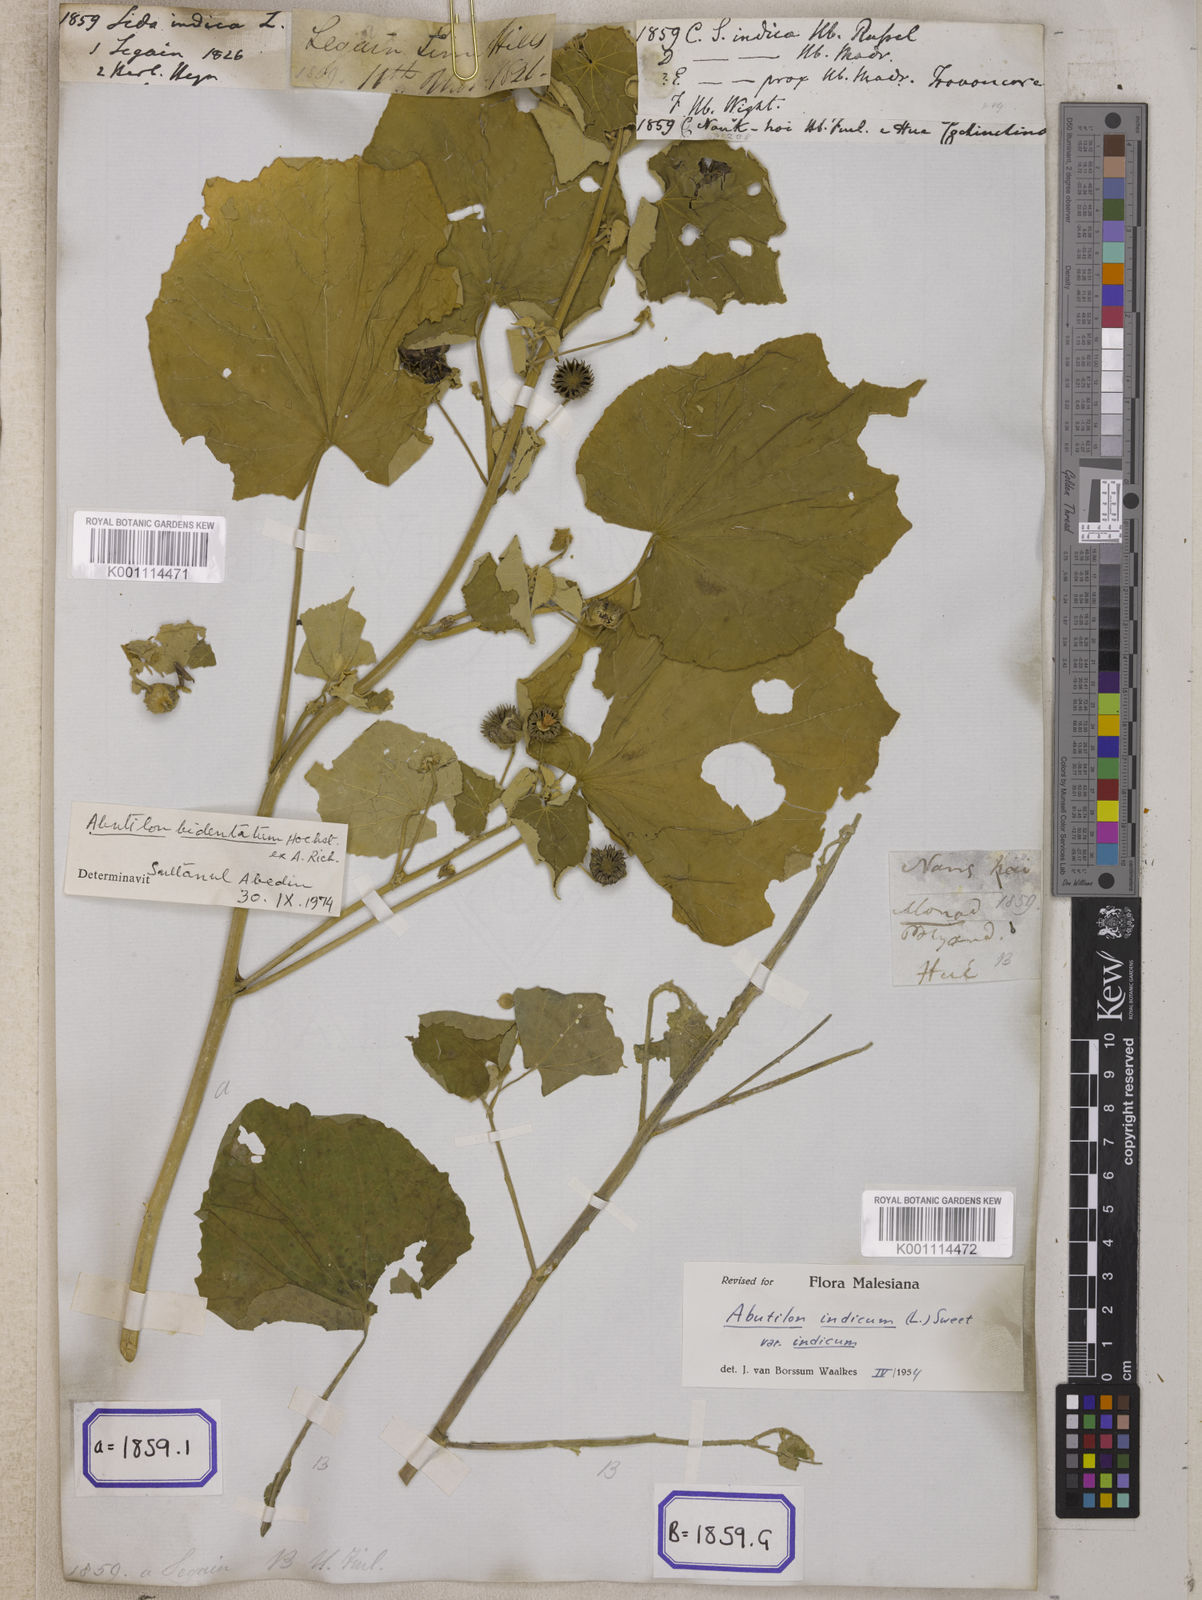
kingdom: Plantae
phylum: Tracheophyta
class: Magnoliopsida
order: Malvales
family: Malvaceae
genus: Abutilon
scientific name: Abutilon indicum
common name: Indian abutilon
